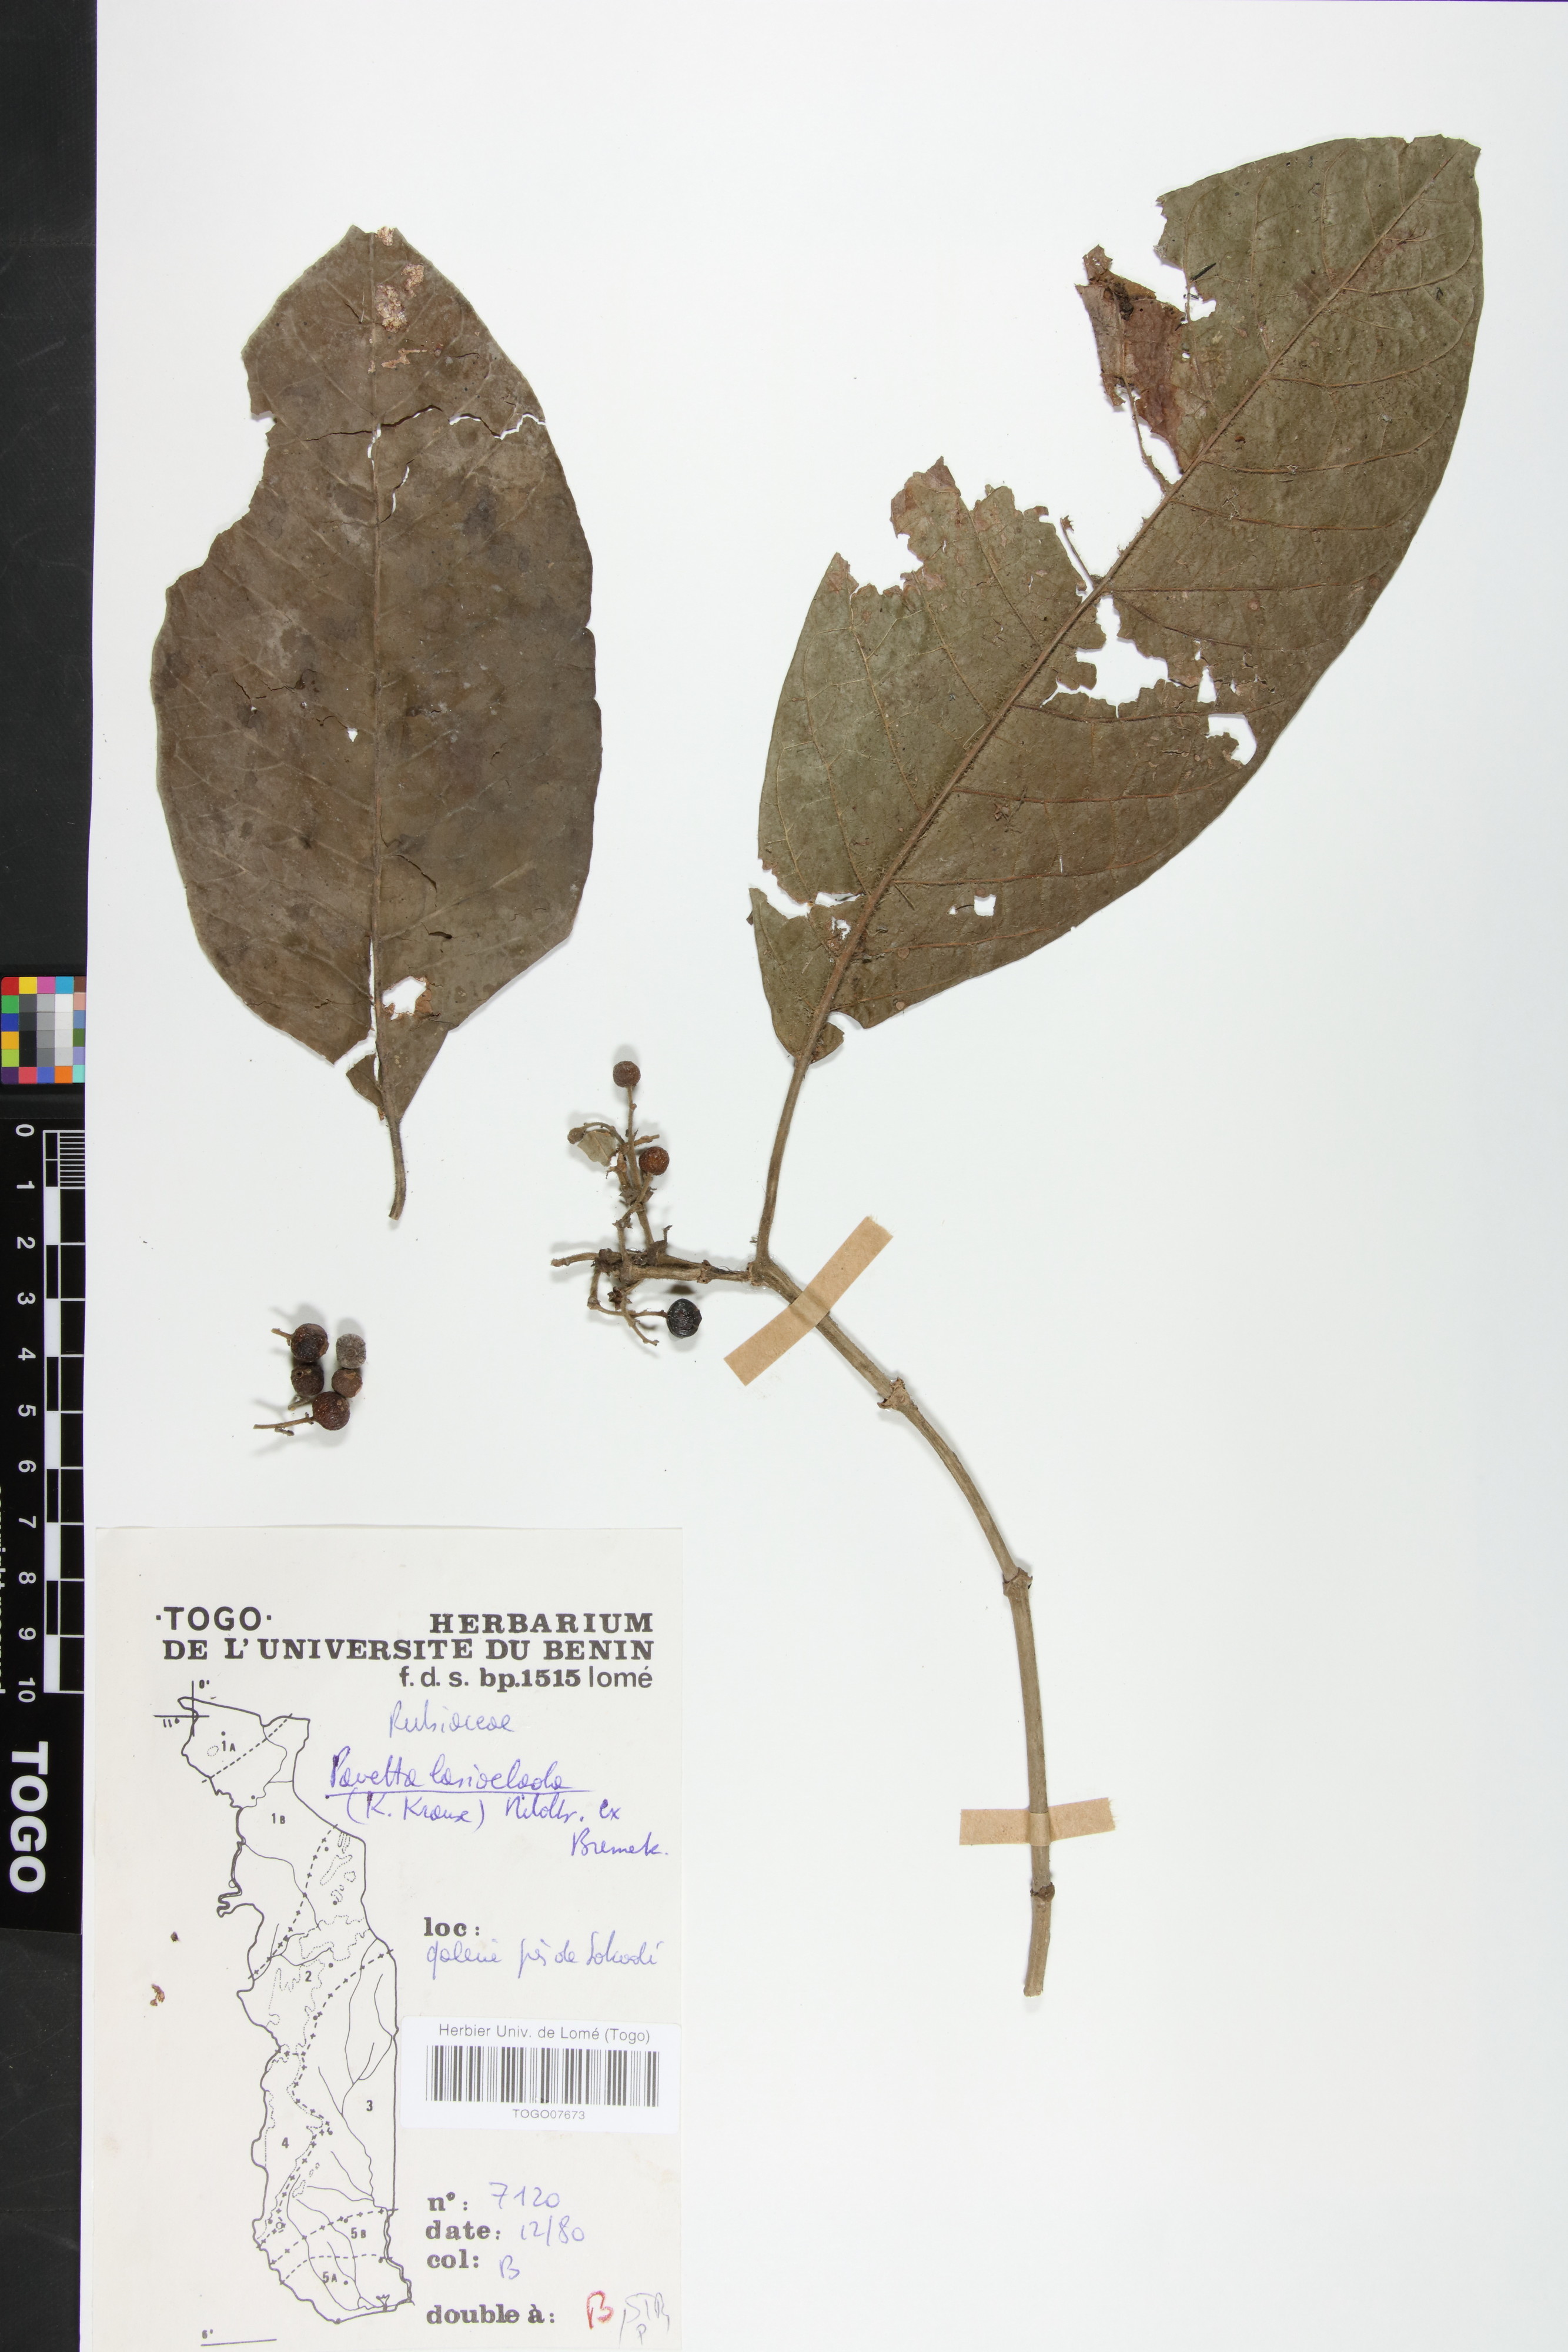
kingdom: Plantae
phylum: Tracheophyta
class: Magnoliopsida
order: Gentianales
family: Rubiaceae
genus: Pavetta
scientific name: Pavetta lasioclada
